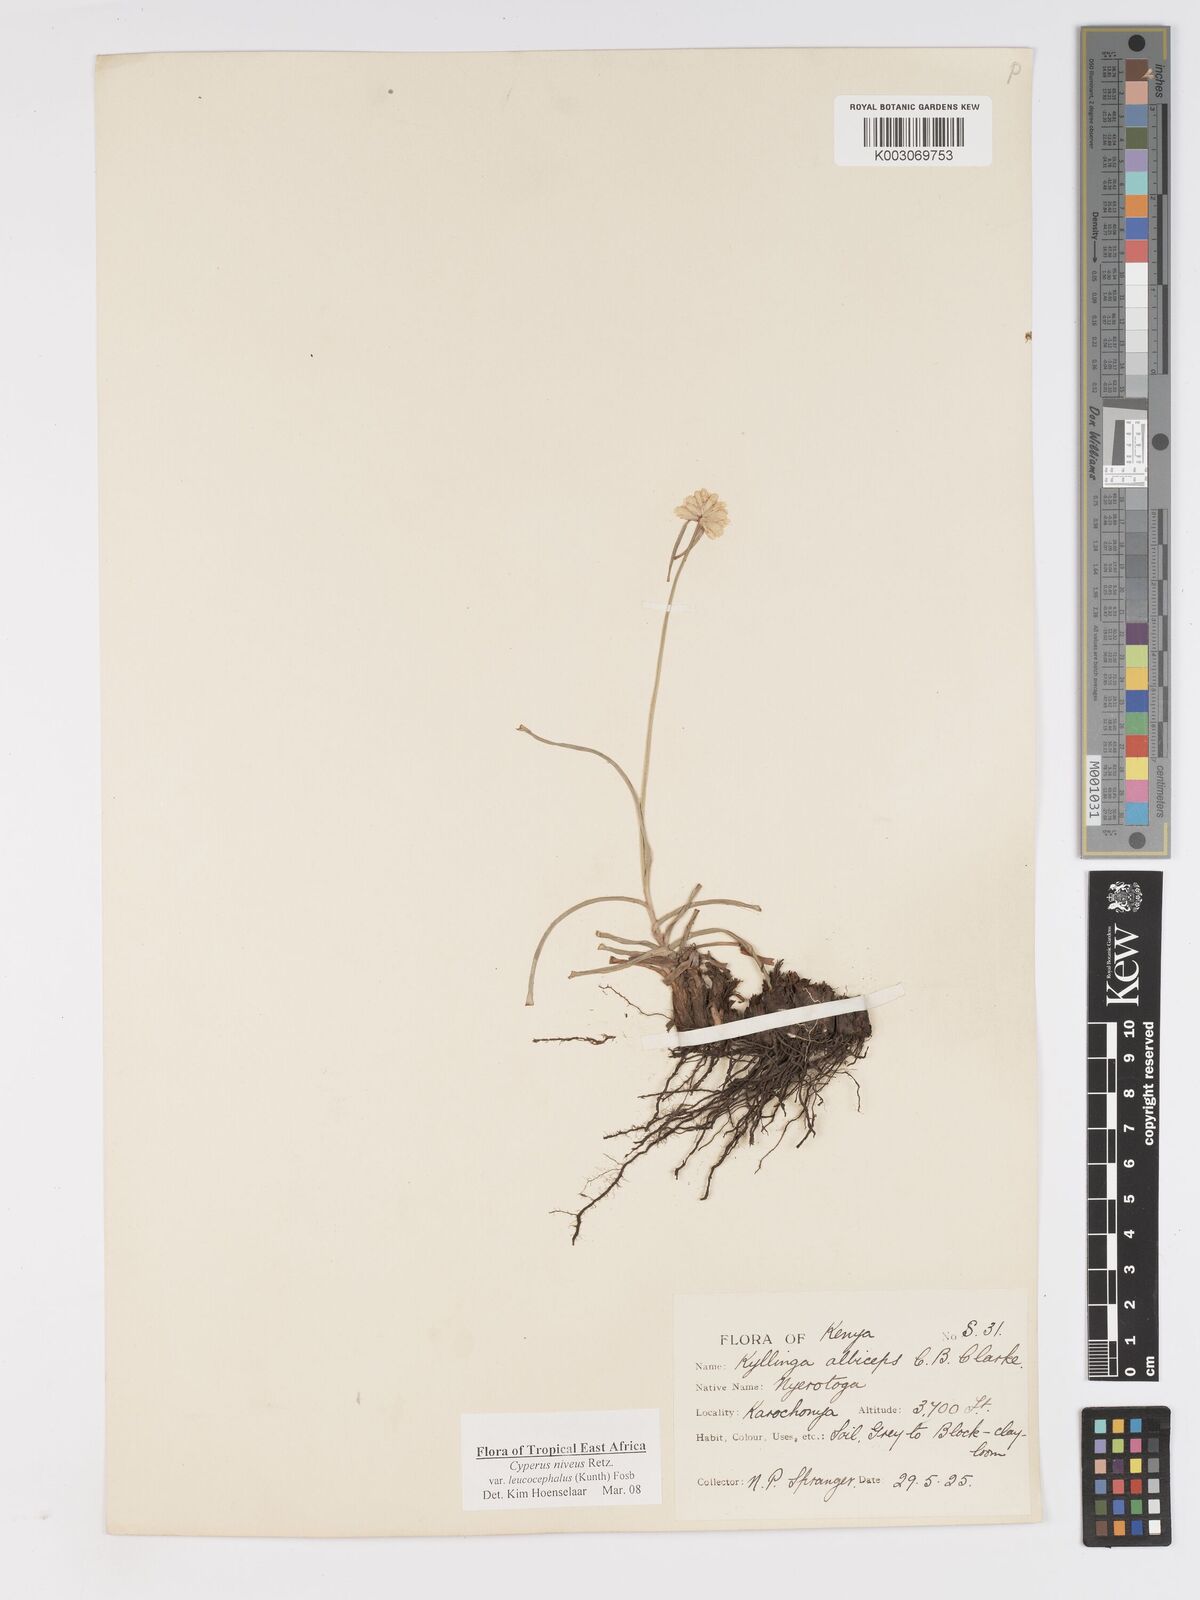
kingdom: Plantae
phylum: Tracheophyta
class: Liliopsida
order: Poales
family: Cyperaceae
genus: Cyperus
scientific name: Cyperus niveus
